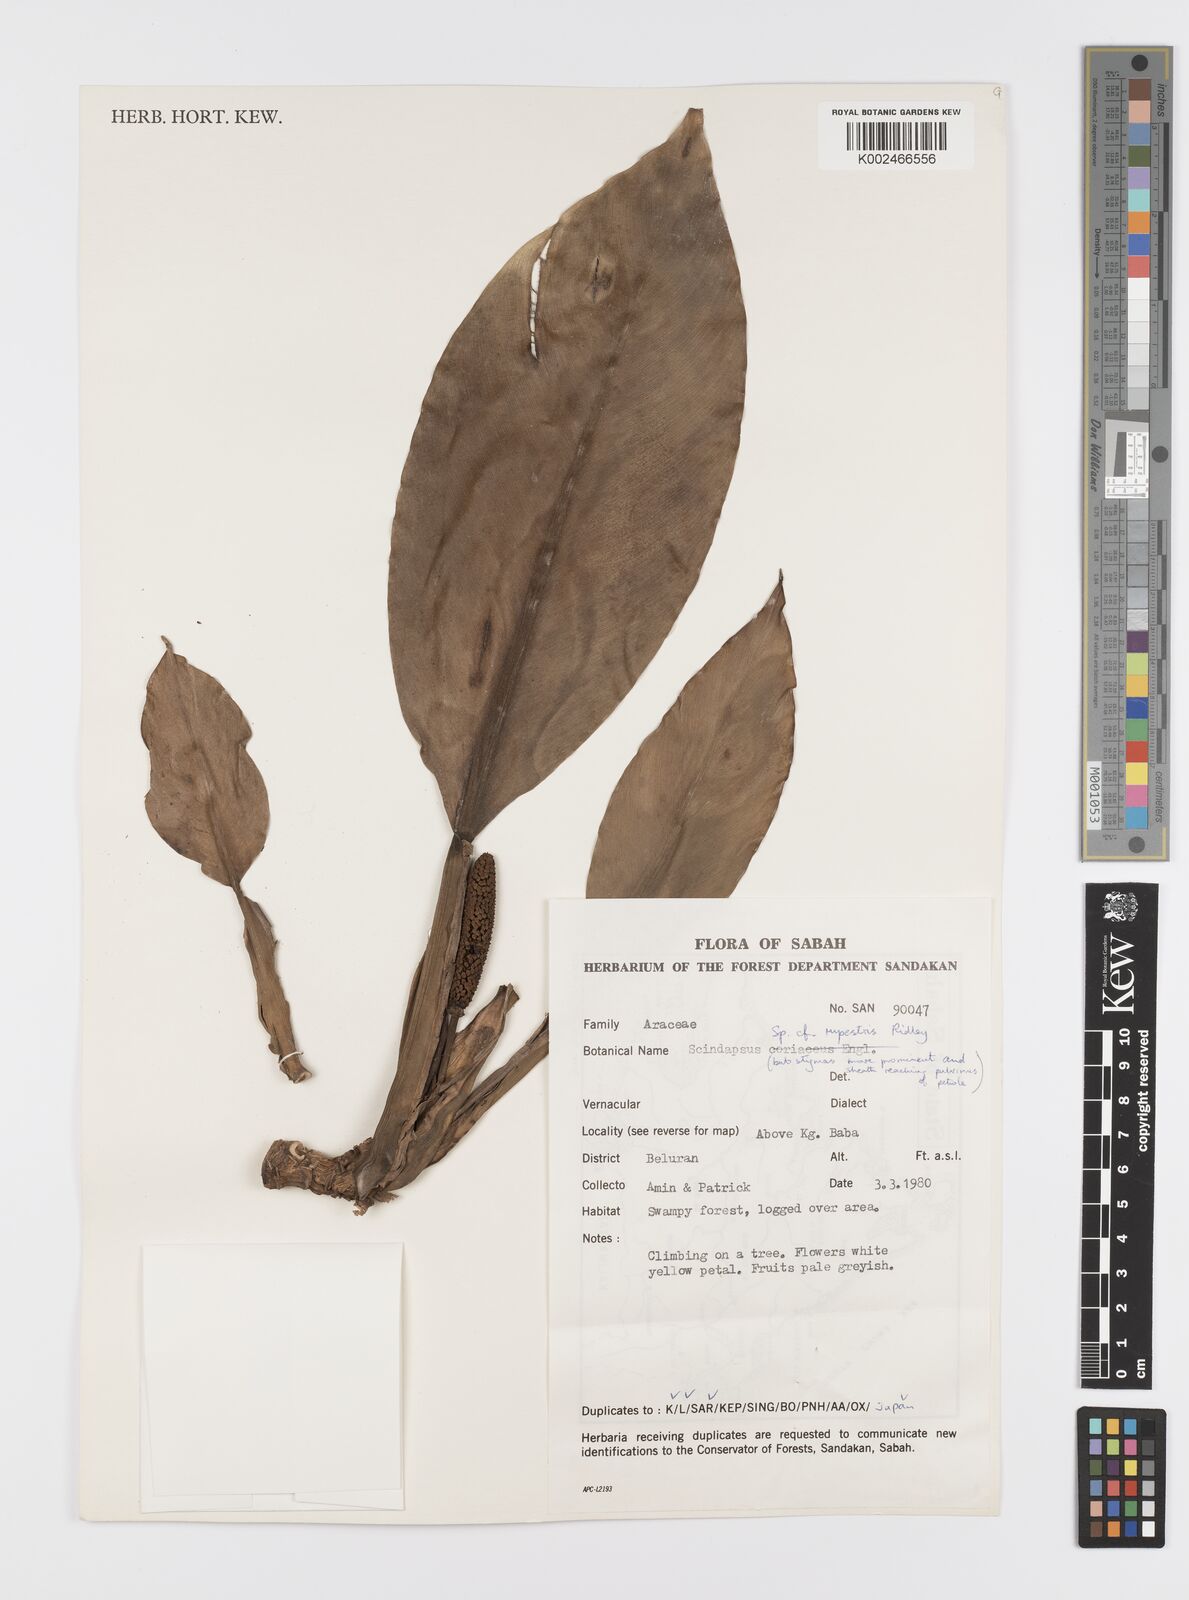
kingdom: Plantae
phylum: Tracheophyta
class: Liliopsida
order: Alismatales
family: Araceae
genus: Scindapsus
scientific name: Scindapsus coriaceus
